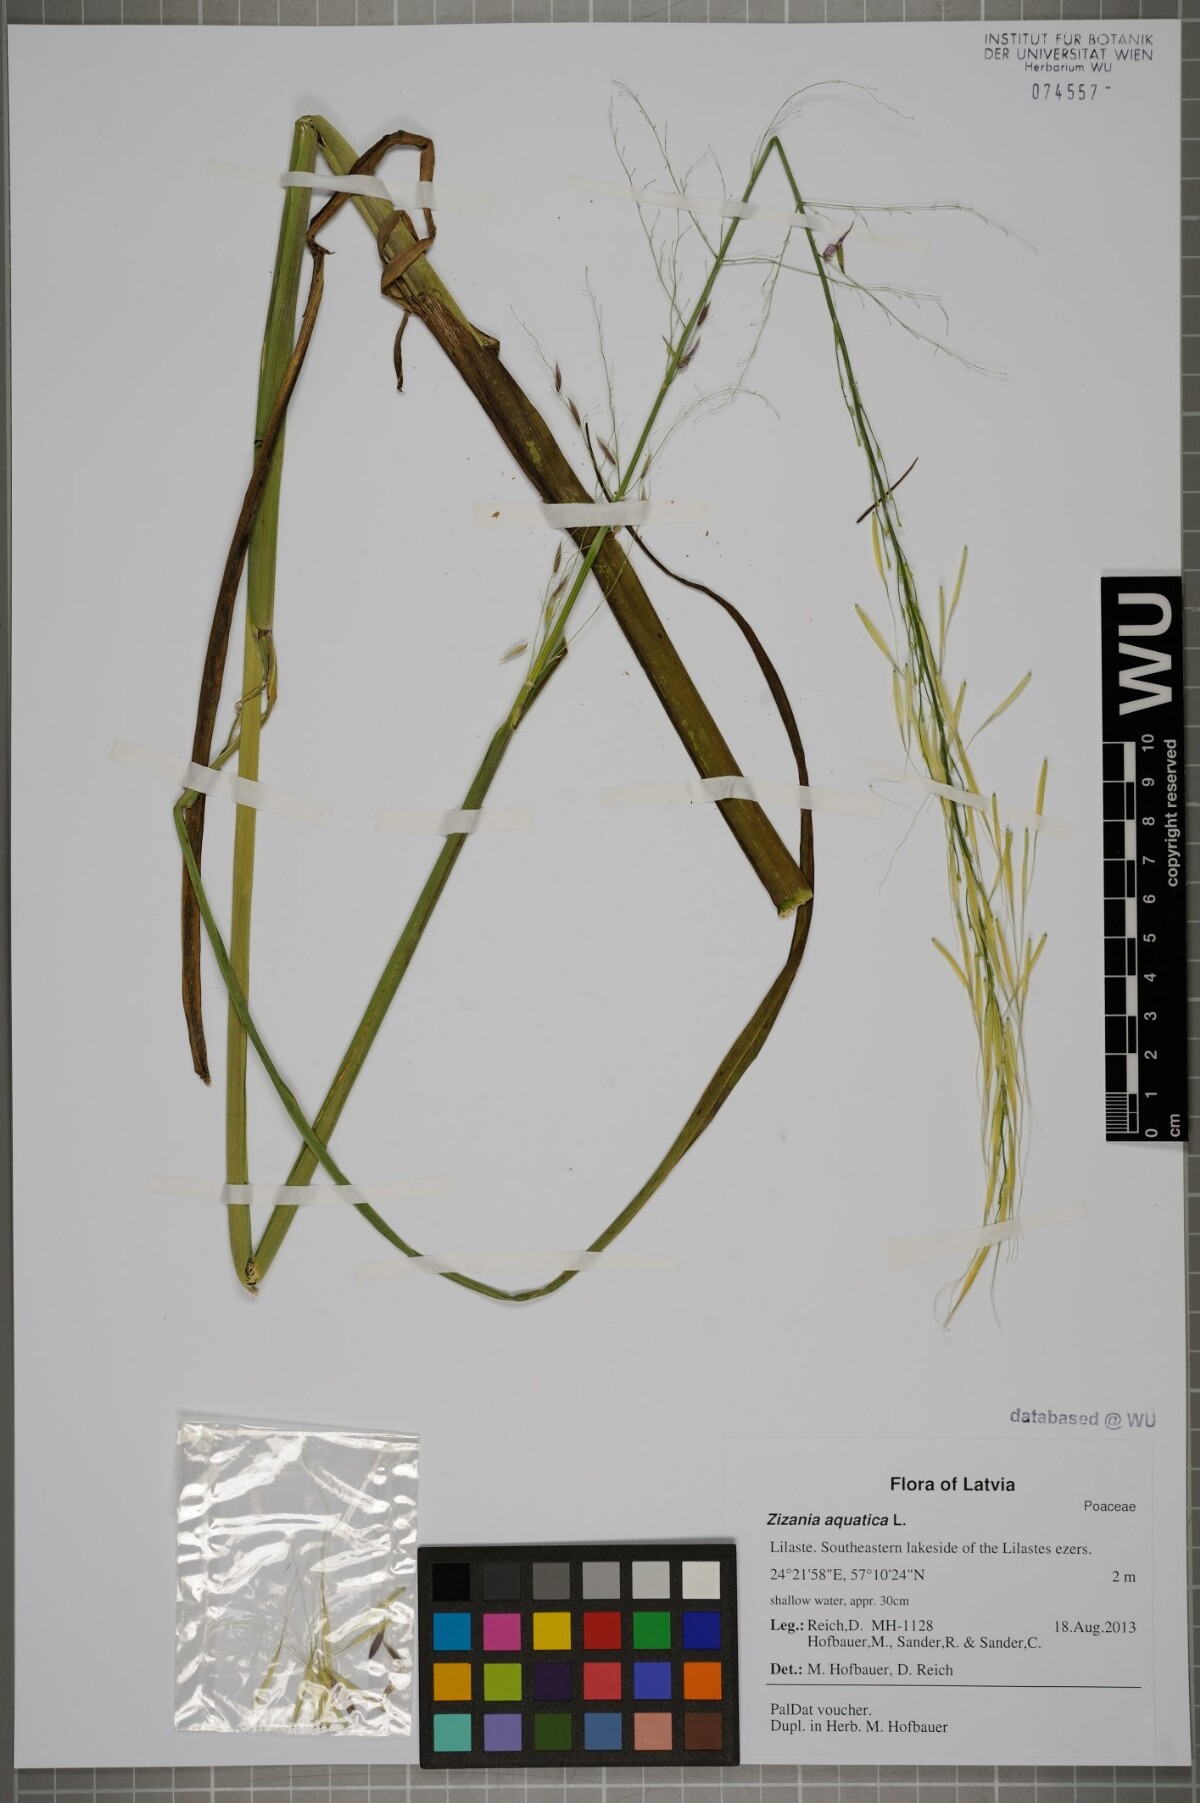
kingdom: Plantae
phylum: Tracheophyta
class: Liliopsida
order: Poales
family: Poaceae
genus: Zizania
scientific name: Zizania aquatica
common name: Annual wildrice
